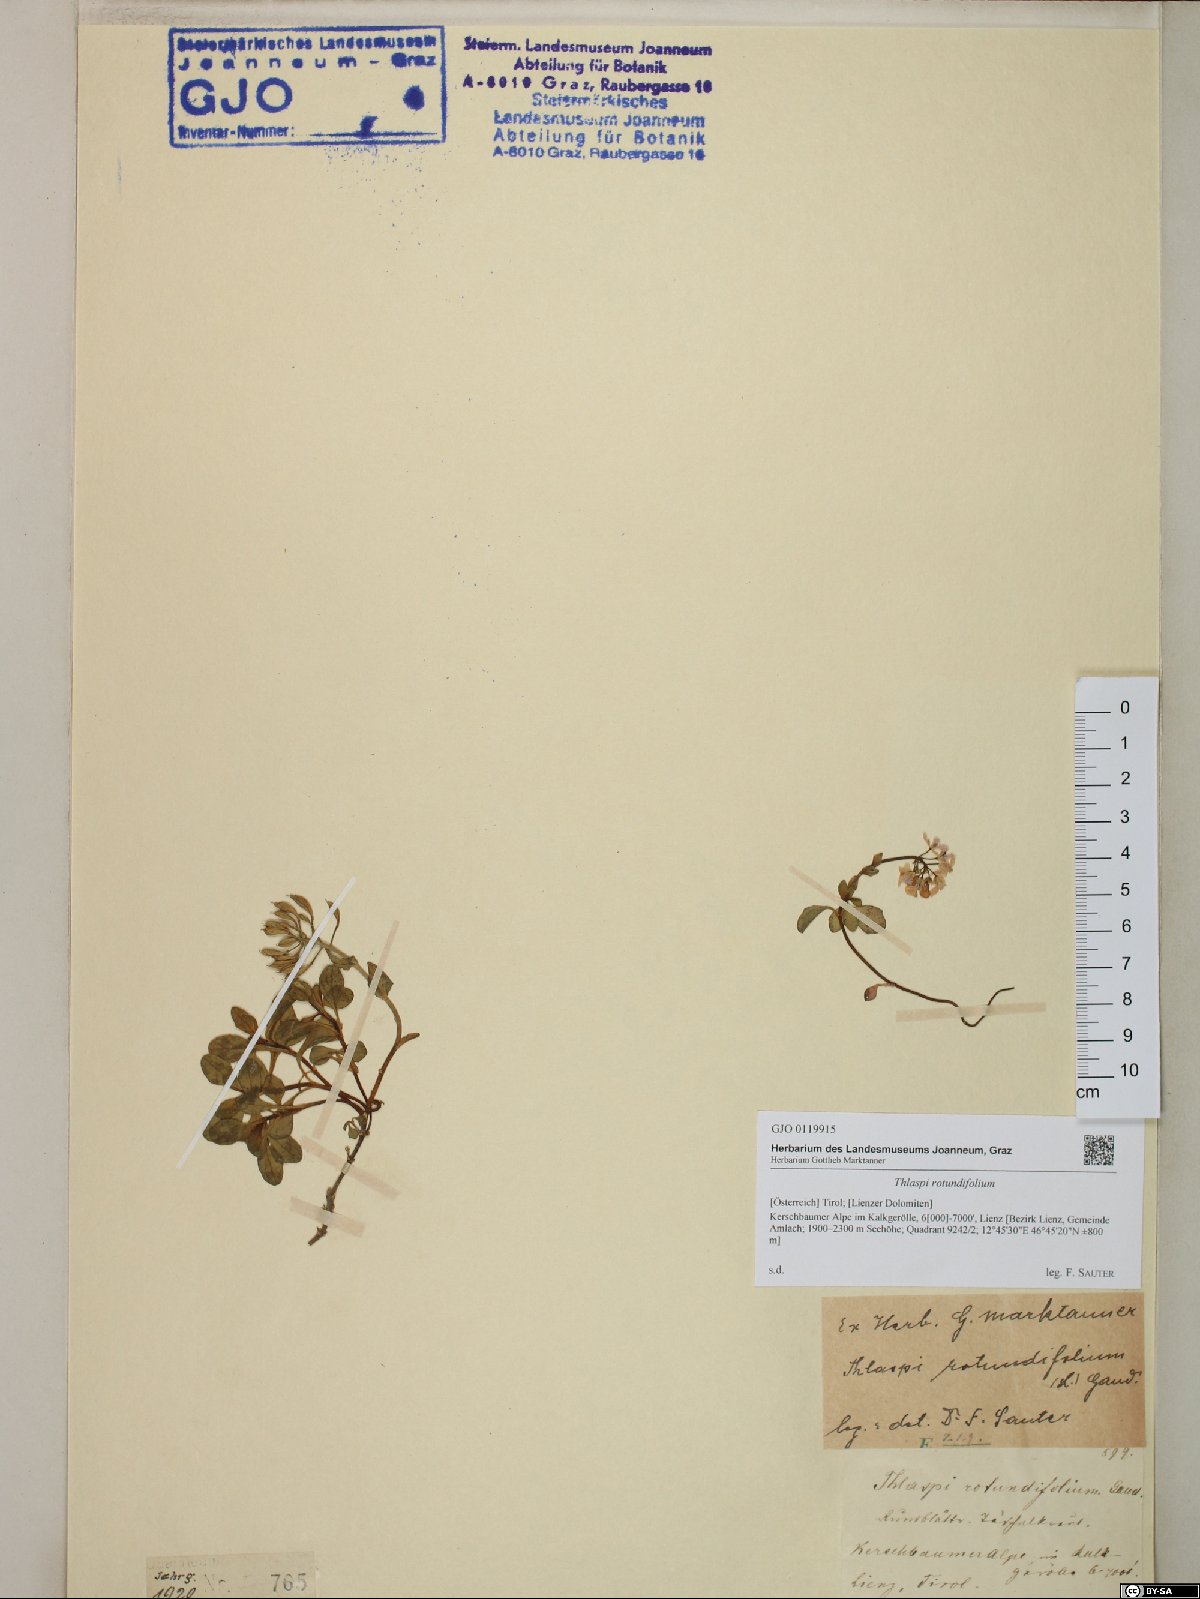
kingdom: Plantae
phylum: Tracheophyta
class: Magnoliopsida
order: Brassicales
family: Brassicaceae
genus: Noccaea
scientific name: Noccaea rotundifolia
